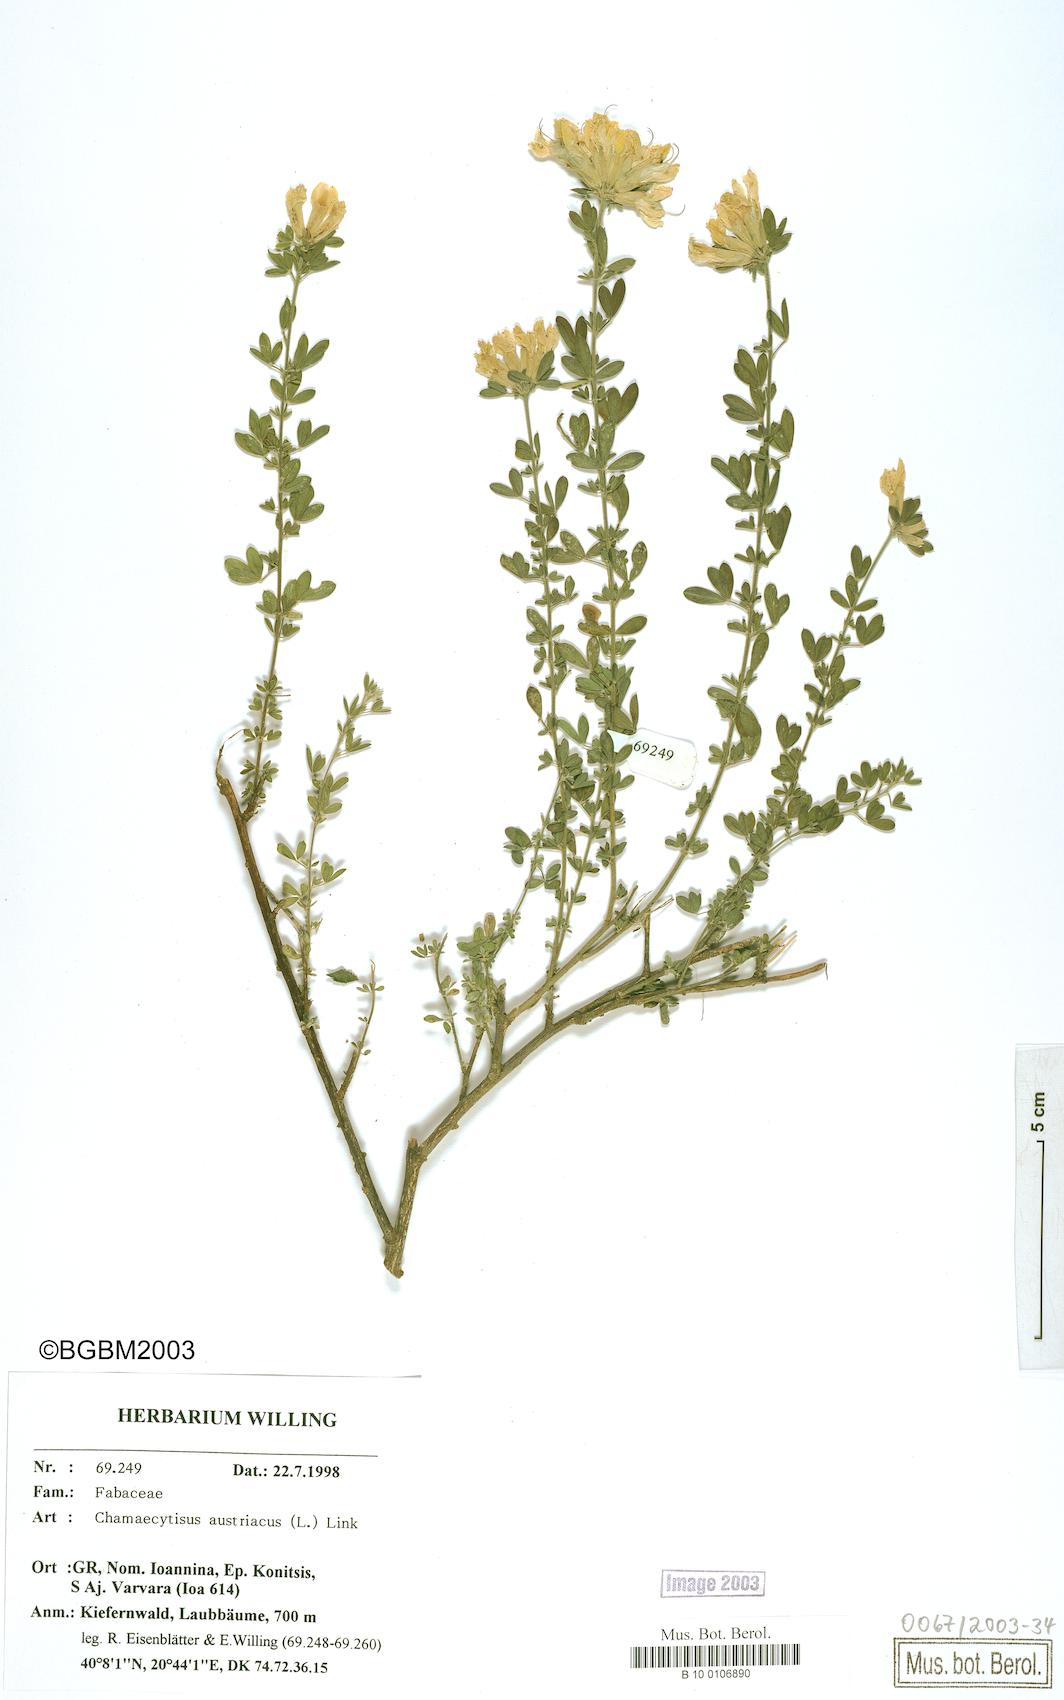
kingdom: Plantae
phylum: Tracheophyta
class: Magnoliopsida
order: Fabales
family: Fabaceae
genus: Chamaecytisus
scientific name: Chamaecytisus austriacus
